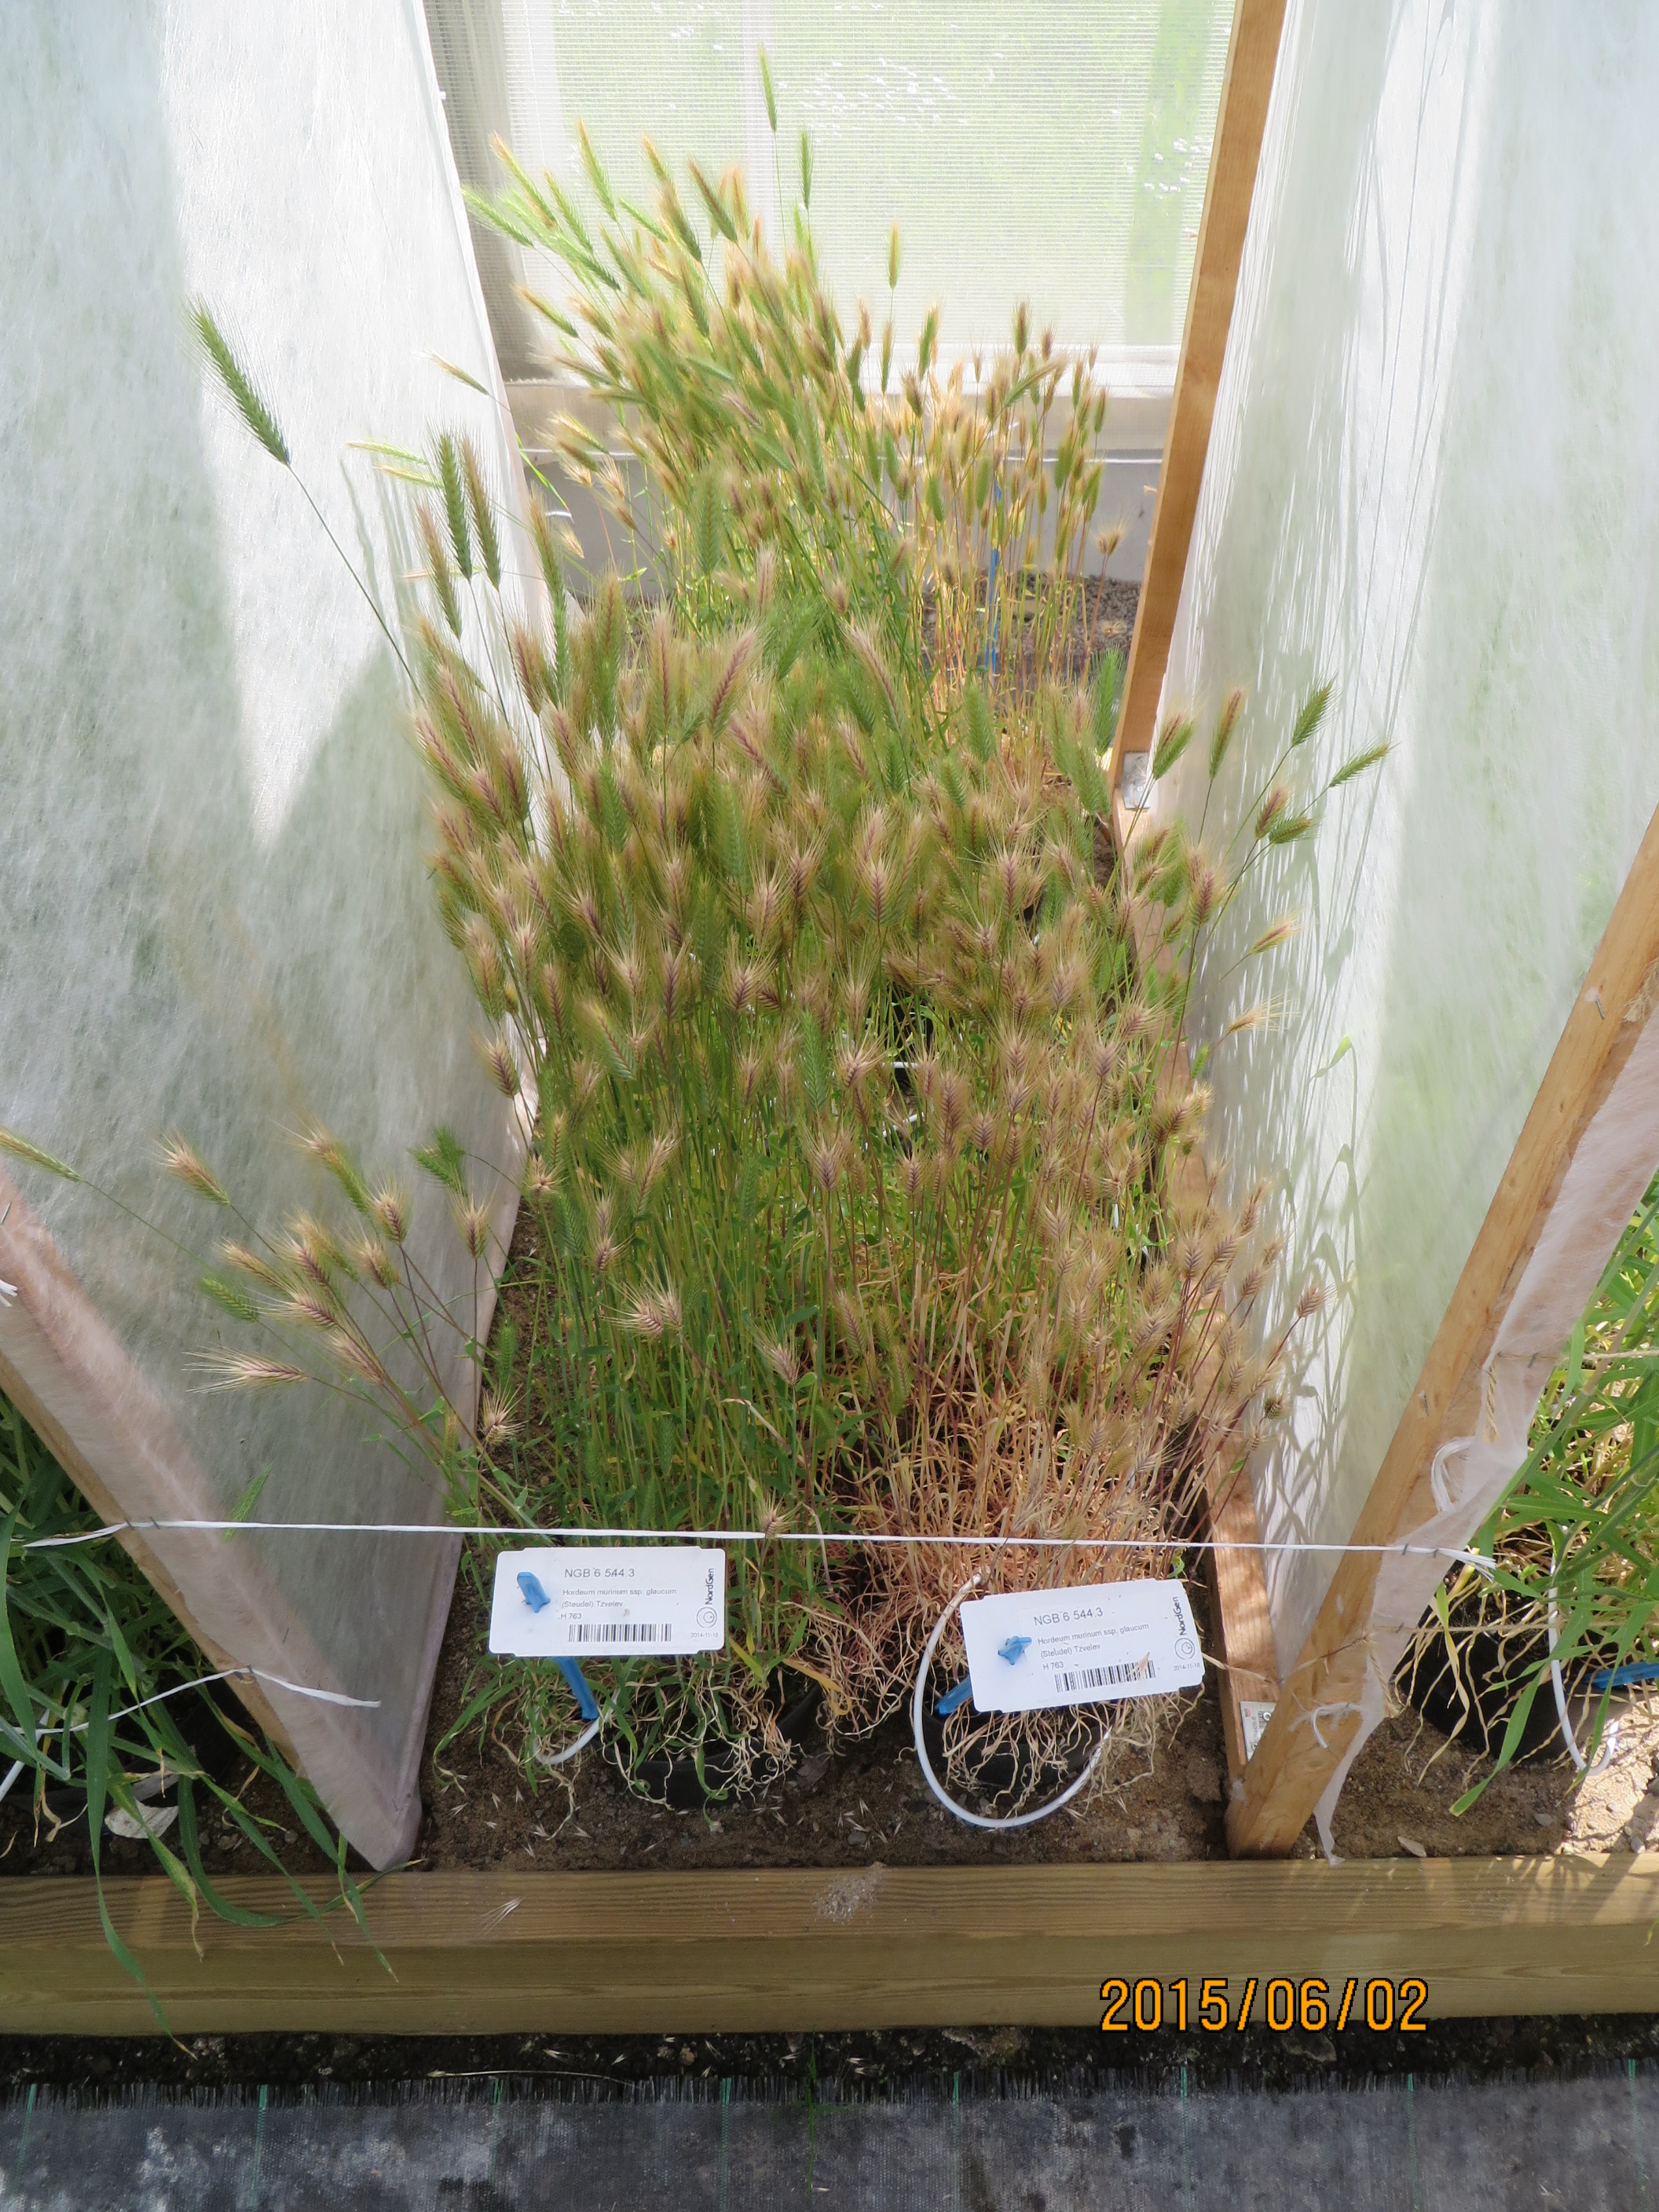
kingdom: Plantae
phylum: Tracheophyta
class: Liliopsida
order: Poales
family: Poaceae
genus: Hordeum
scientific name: Hordeum murinum
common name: Wall barley
